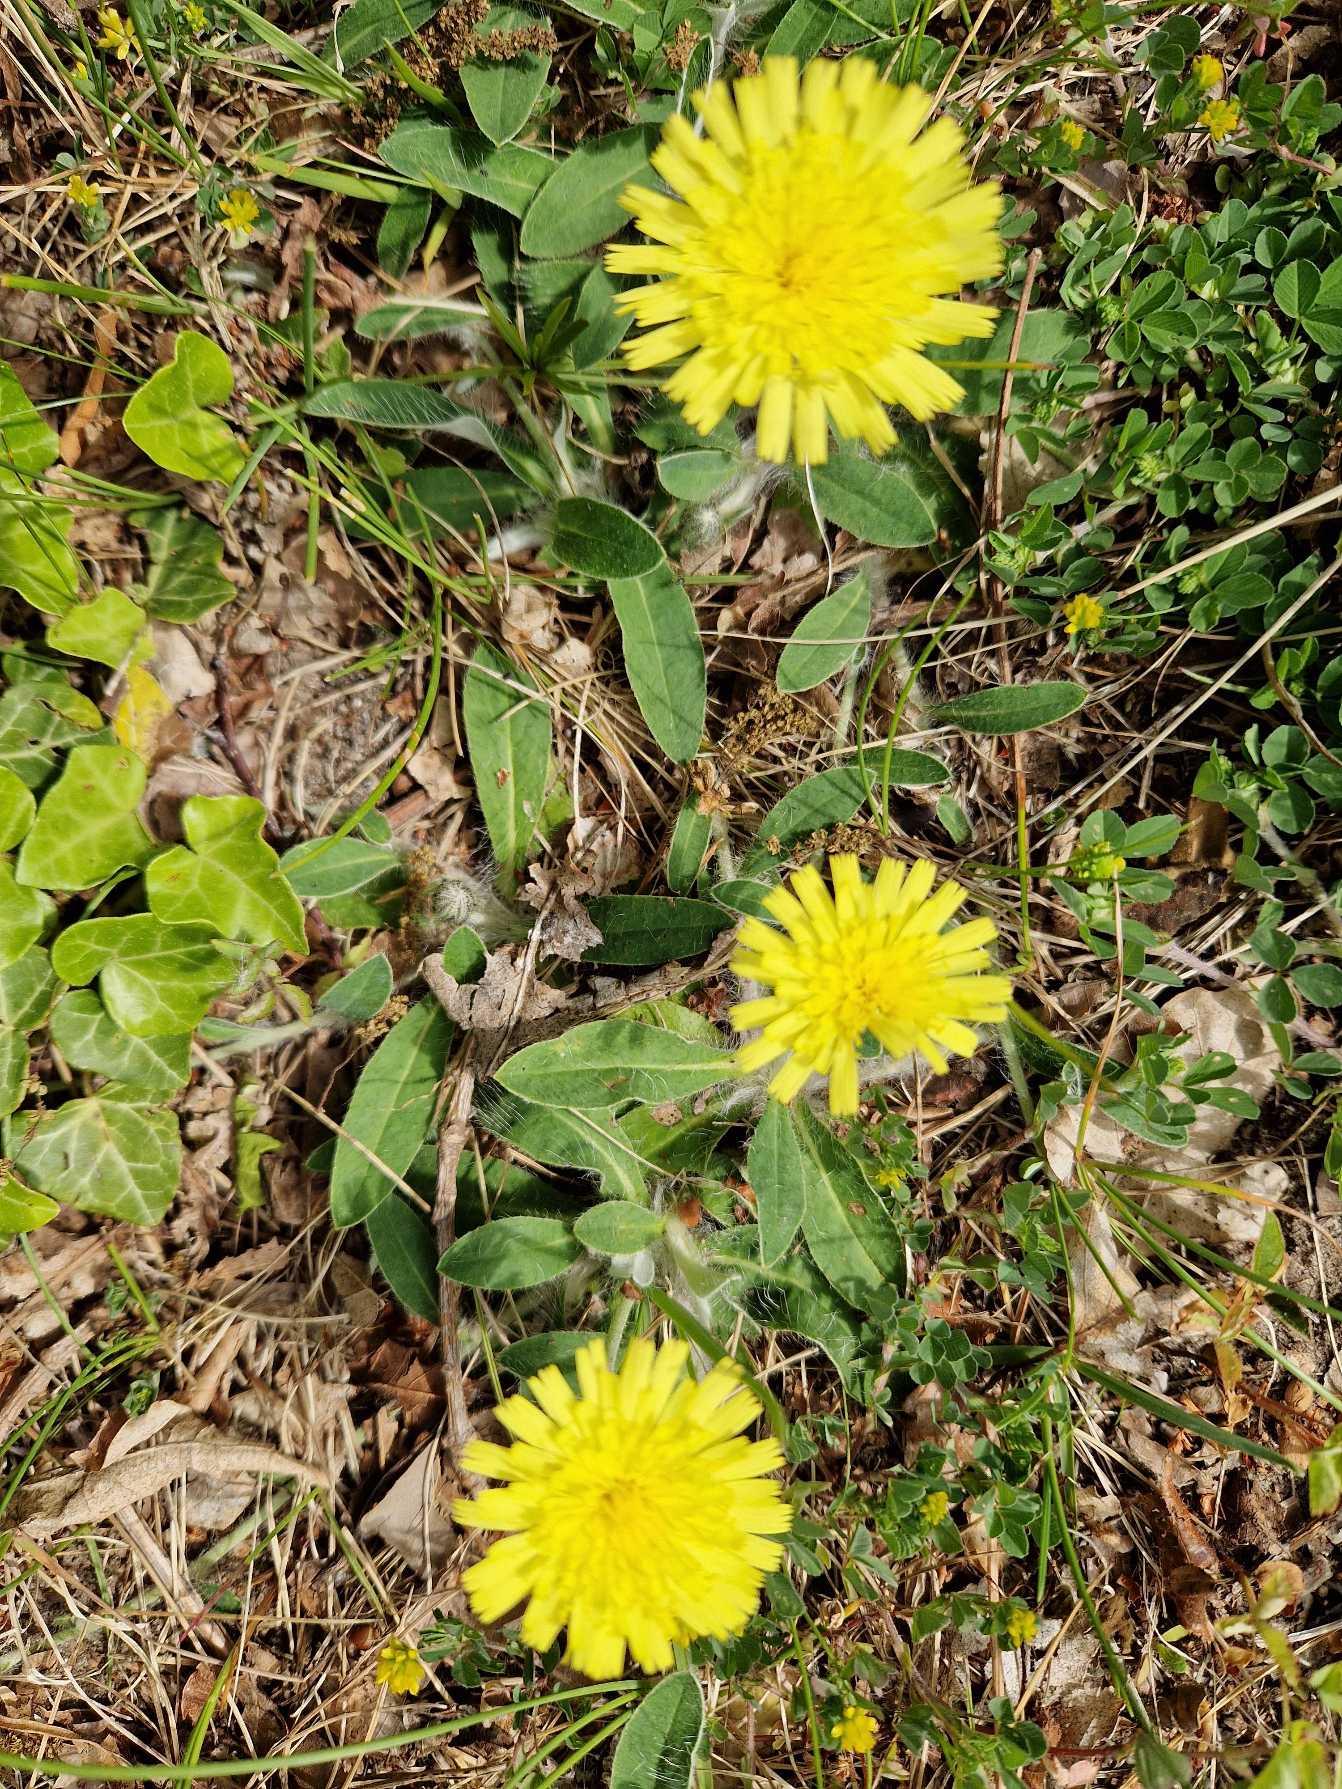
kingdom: Plantae
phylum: Tracheophyta
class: Magnoliopsida
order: Asterales
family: Asteraceae
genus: Pilosella
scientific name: Pilosella officinarum
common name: Håret høgeurt
